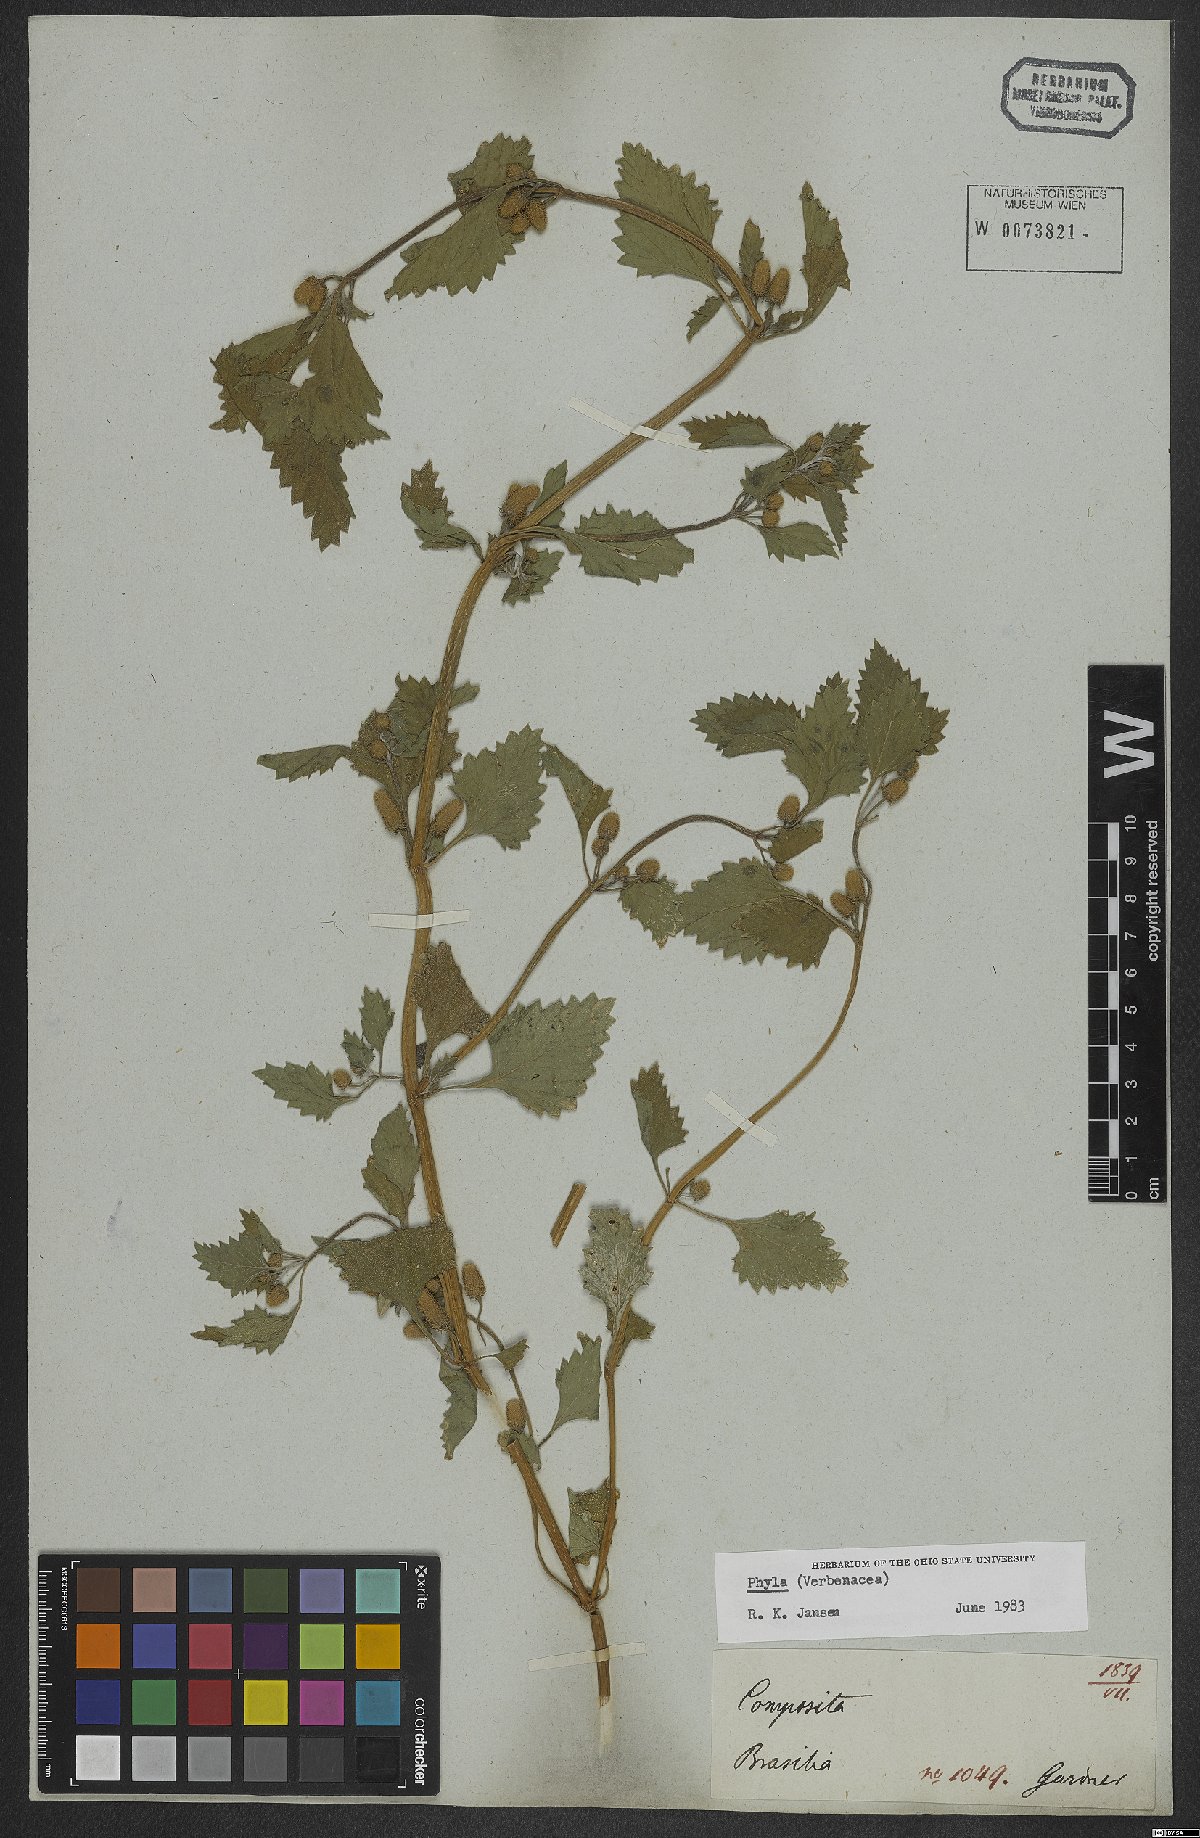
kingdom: Plantae
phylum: Tracheophyta
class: Magnoliopsida
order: Lamiales
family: Verbenaceae
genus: Phyla
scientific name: Phyla
